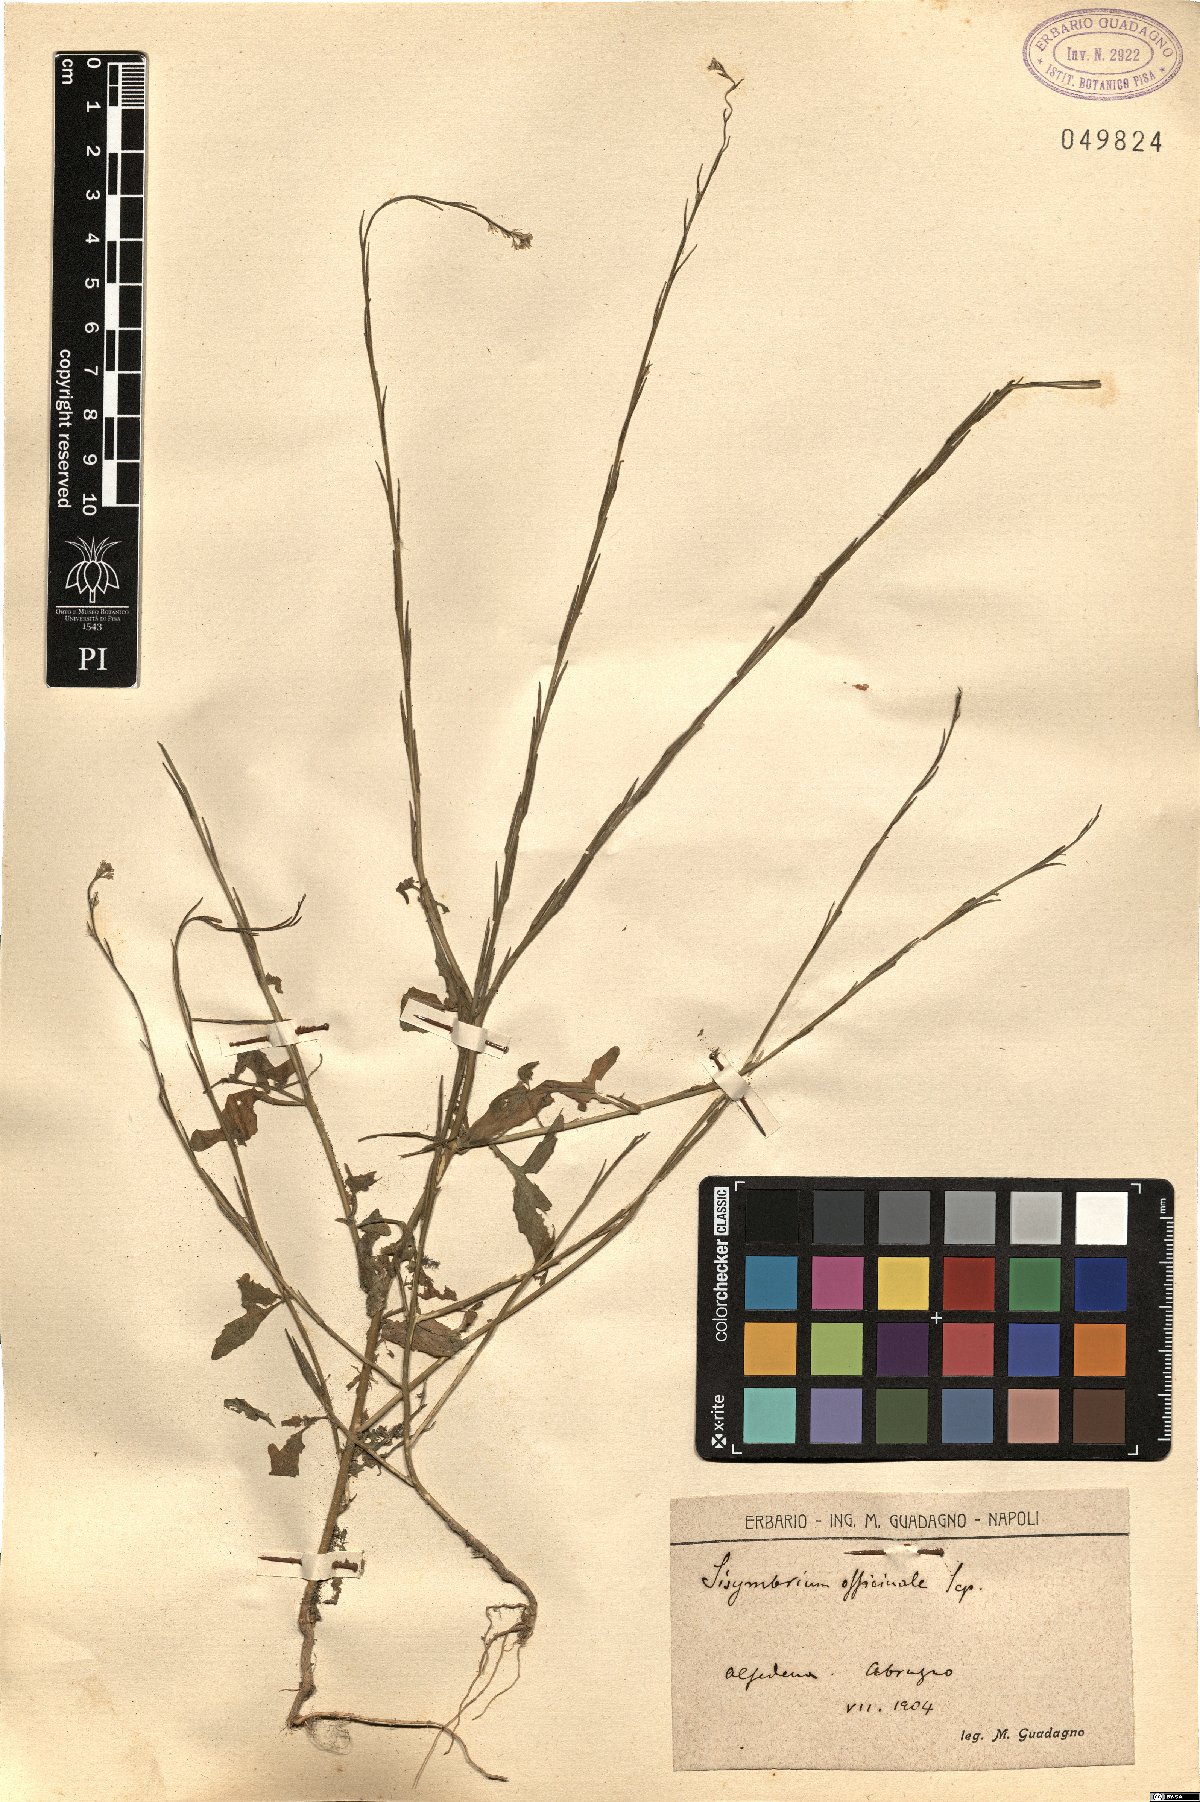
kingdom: Plantae
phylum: Tracheophyta
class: Magnoliopsida
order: Brassicales
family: Brassicaceae
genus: Sisymbrium
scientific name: Sisymbrium officinale
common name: Hedge mustard
